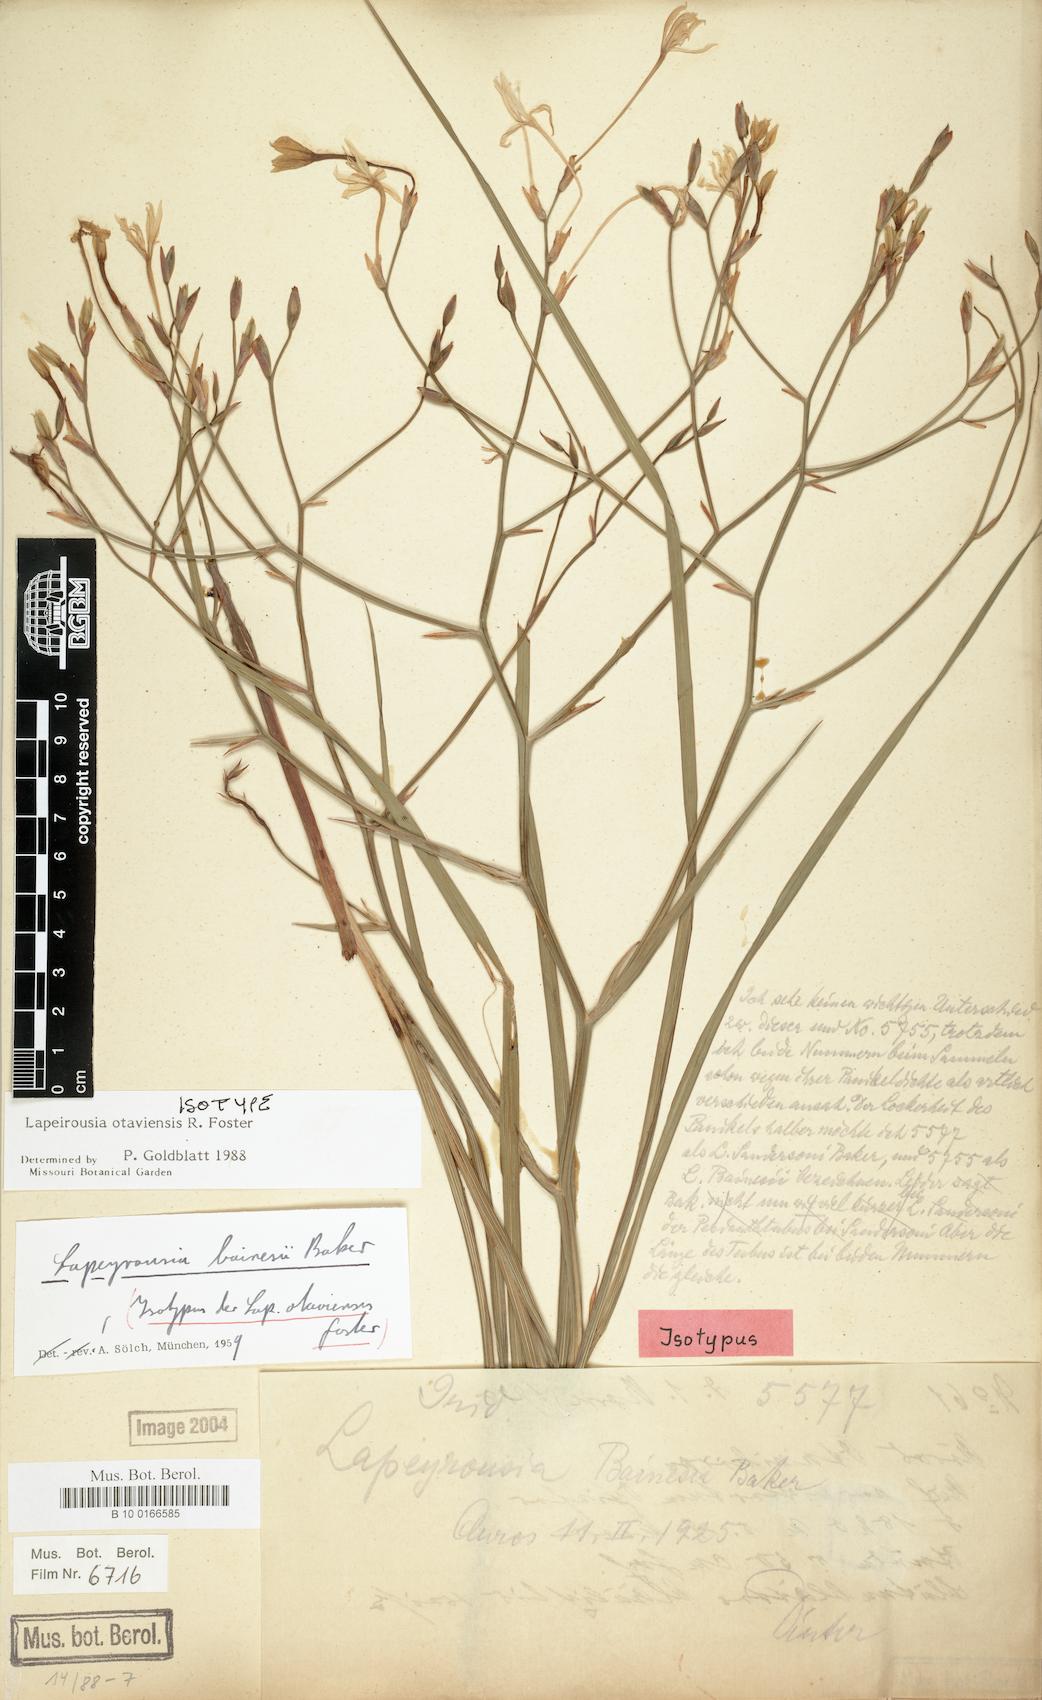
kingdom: Plantae
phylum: Tracheophyta
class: Liliopsida
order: Asparagales
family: Iridaceae
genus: Afrosolen
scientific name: Afrosolen otaviensis
